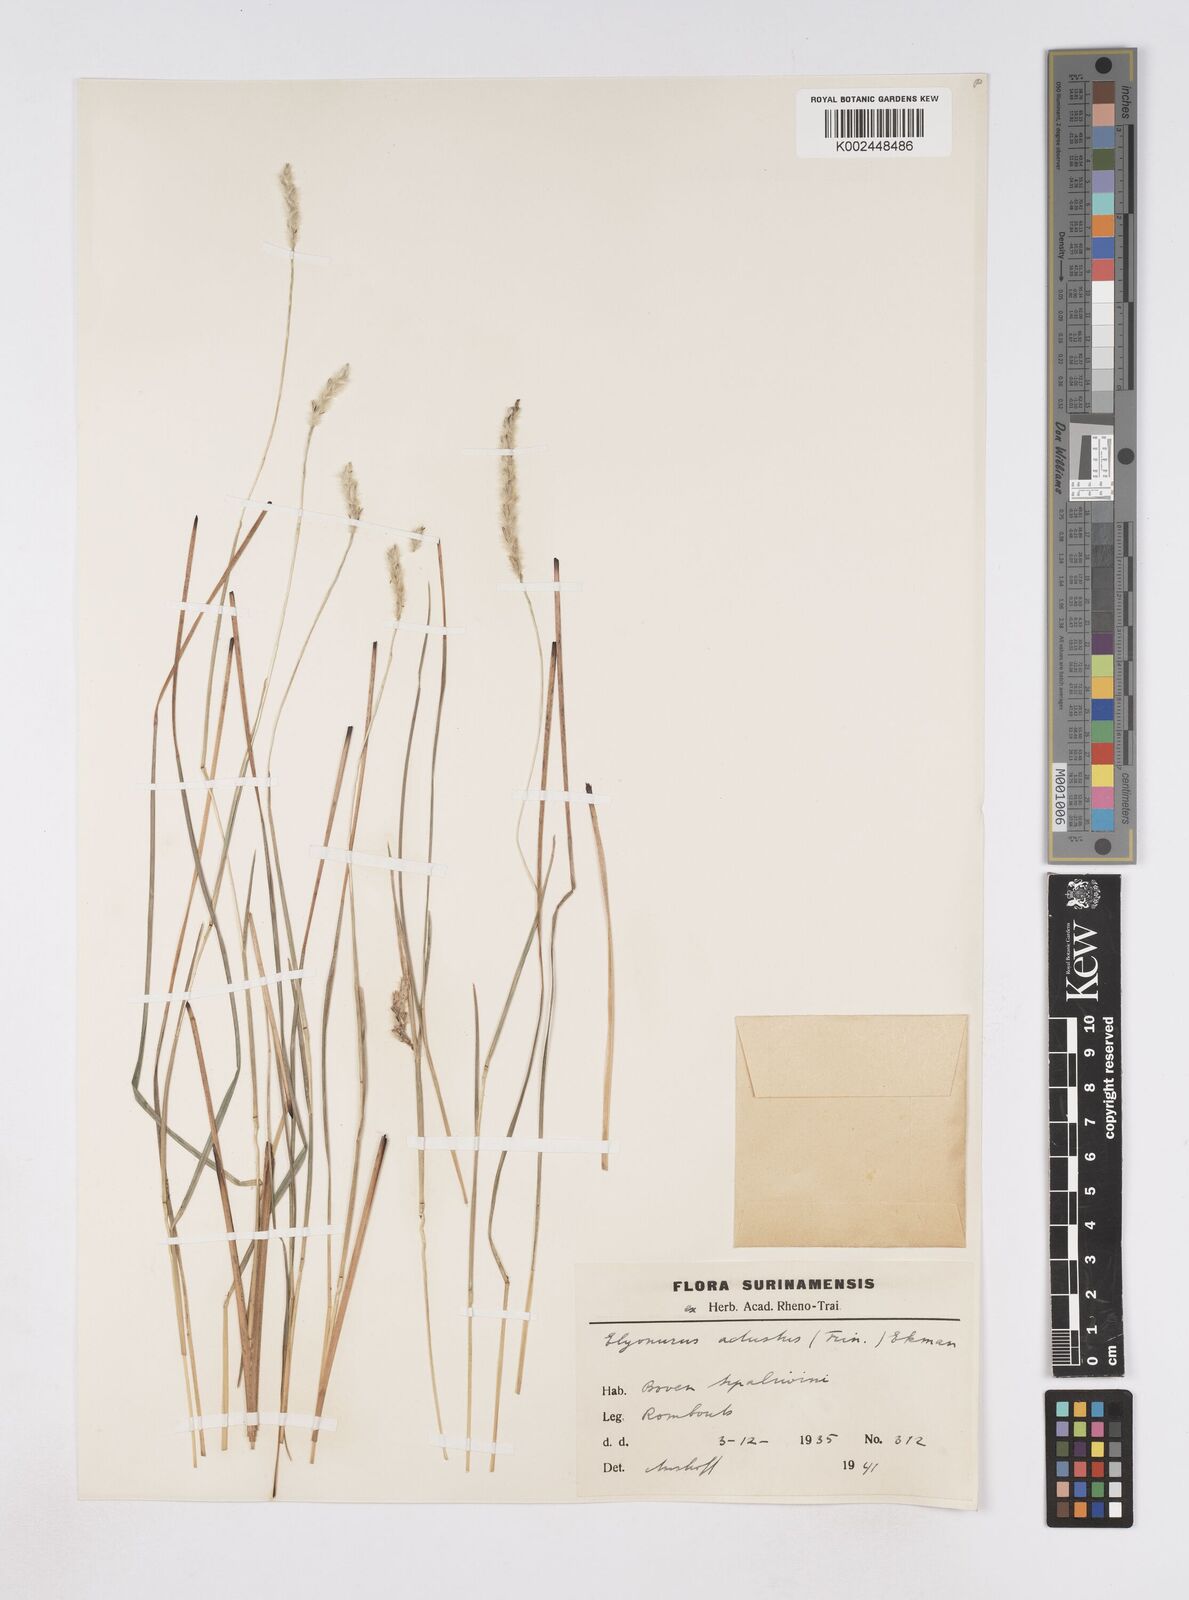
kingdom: Plantae
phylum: Tracheophyta
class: Liliopsida
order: Poales
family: Poaceae
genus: Elionurus
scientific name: Elionurus planifolius
